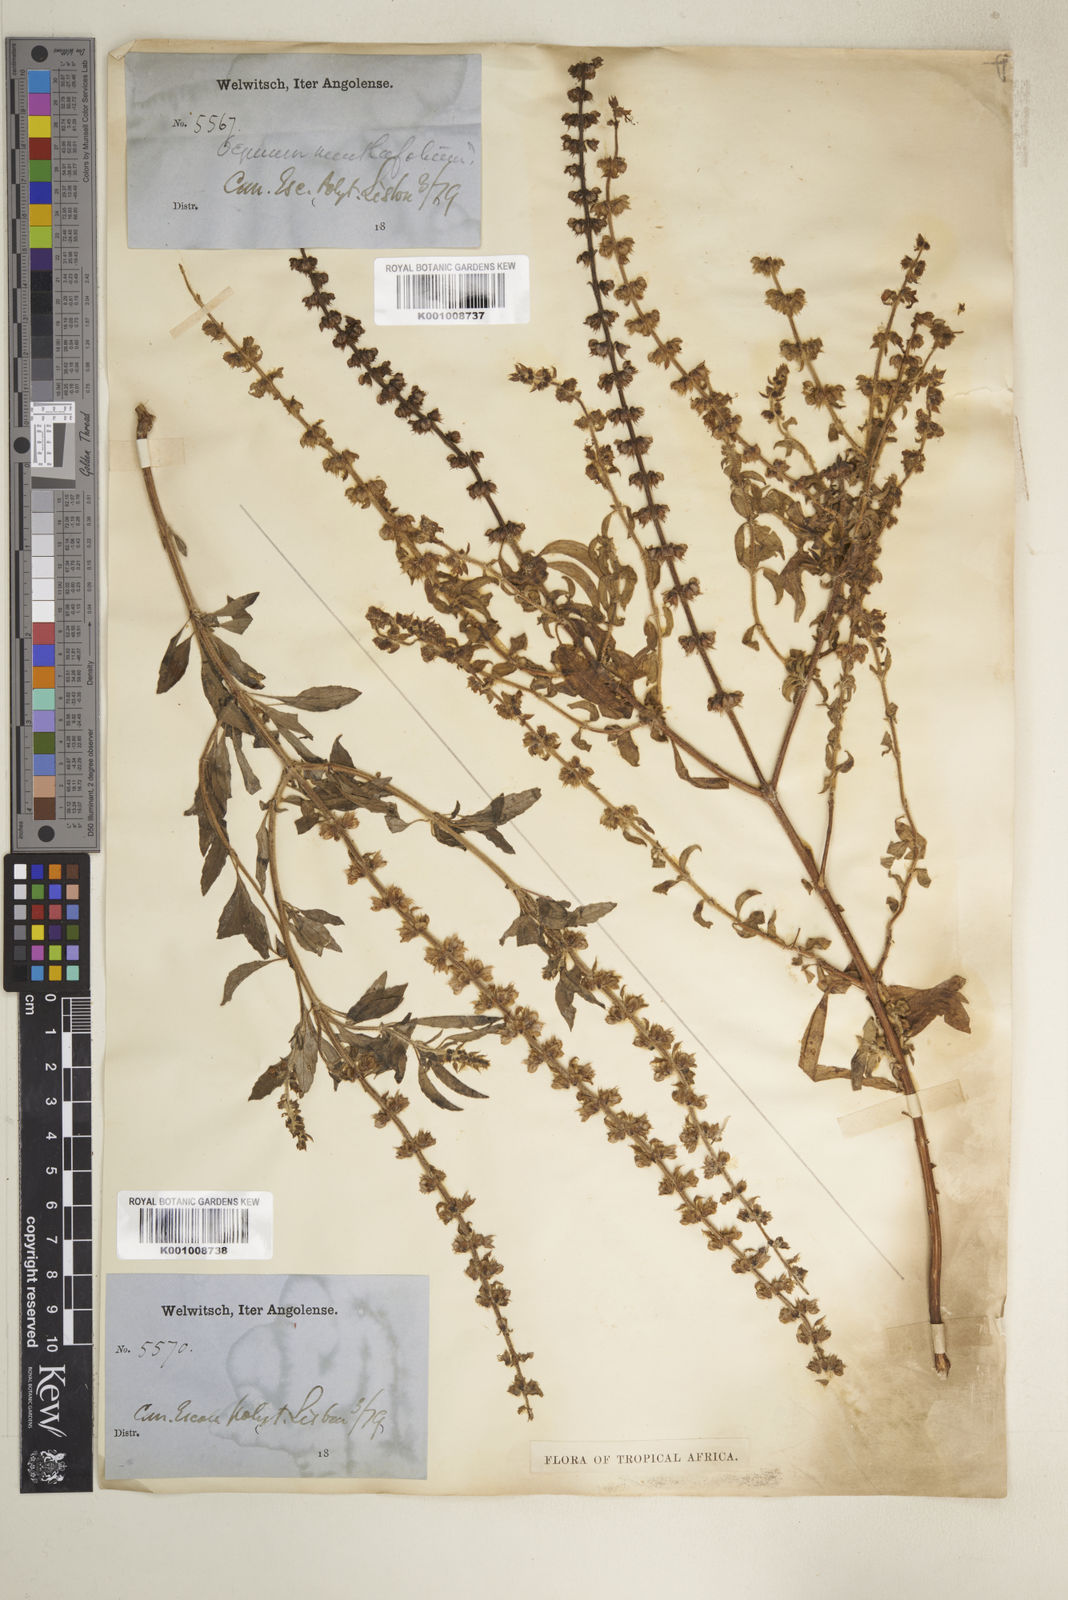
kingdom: Plantae
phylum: Tracheophyta
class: Magnoliopsida
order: Lamiales
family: Lamiaceae
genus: Ocimum
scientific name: Ocimum americanum
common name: American basil
